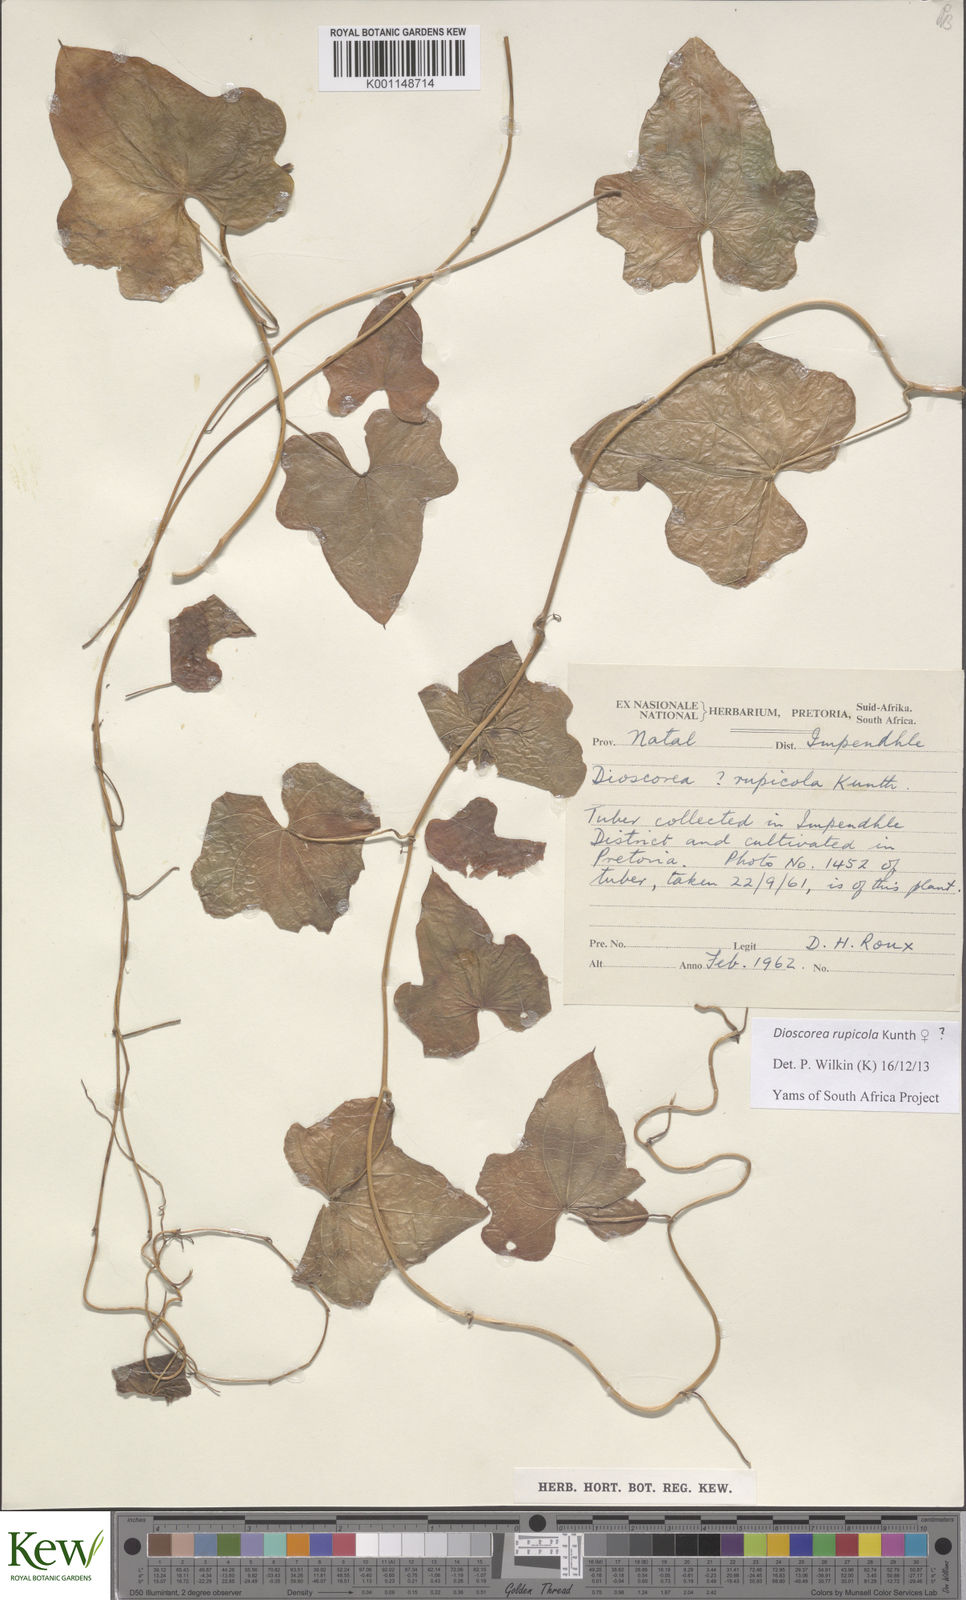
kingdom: Plantae
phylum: Tracheophyta
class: Liliopsida
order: Dioscoreales
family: Dioscoreaceae
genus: Dioscorea
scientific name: Dioscorea rupicola
